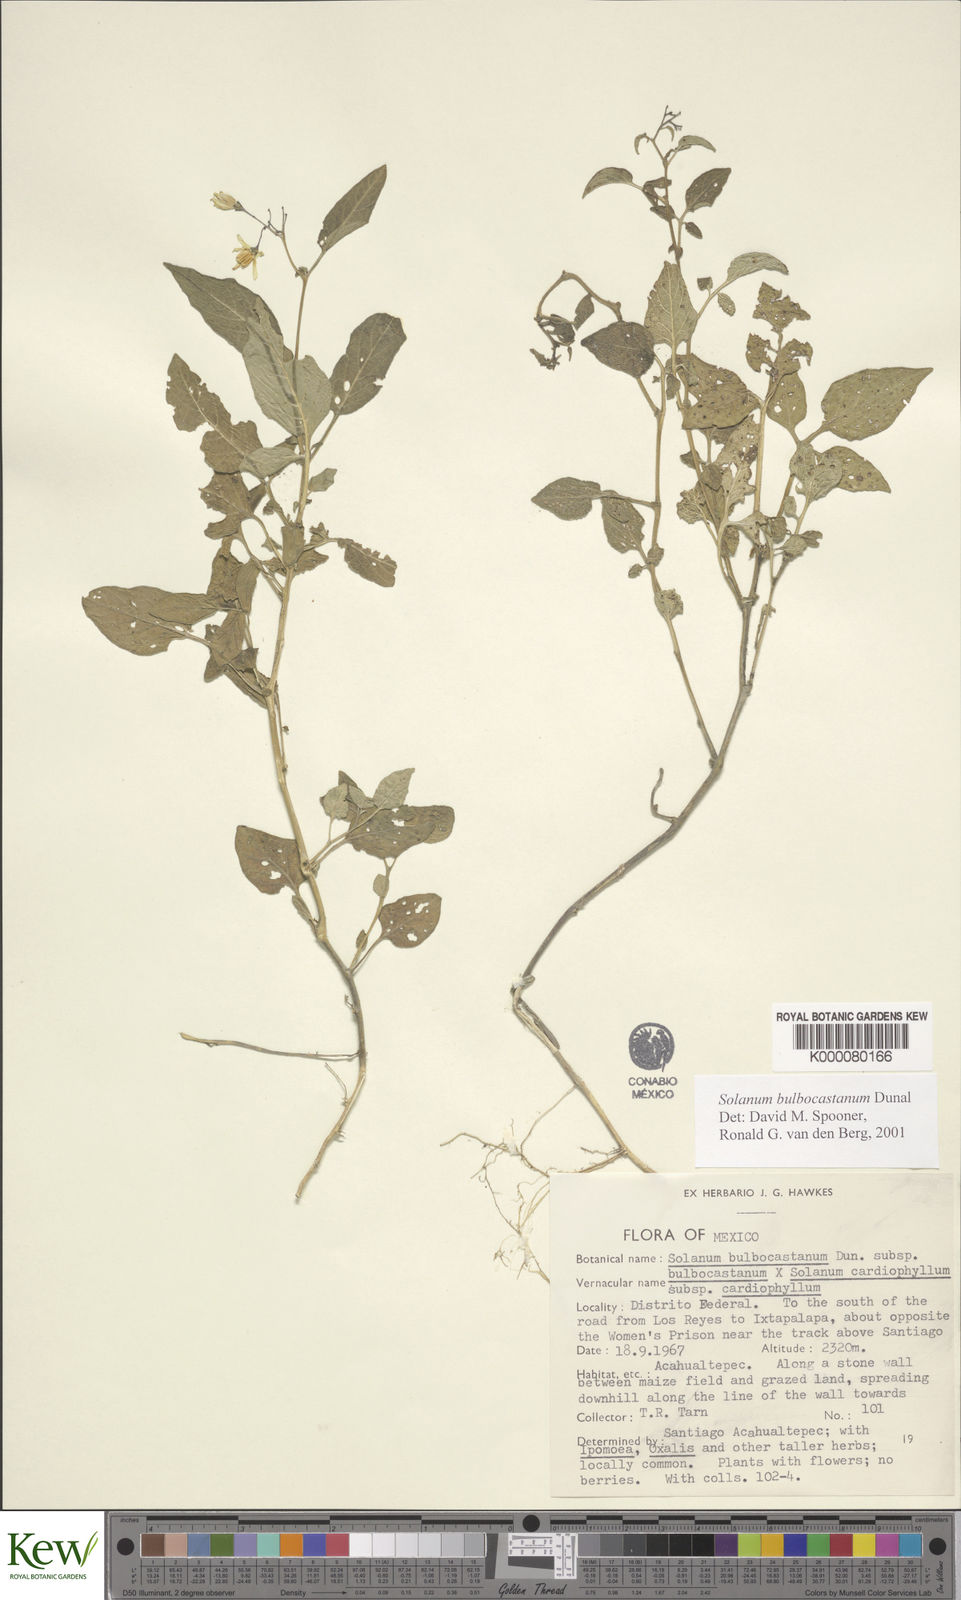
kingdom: Plantae
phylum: Tracheophyta
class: Magnoliopsida
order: Solanales
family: Solanaceae
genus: Solanum
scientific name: Solanum bulbocastanum
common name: Ornamental nightshade
